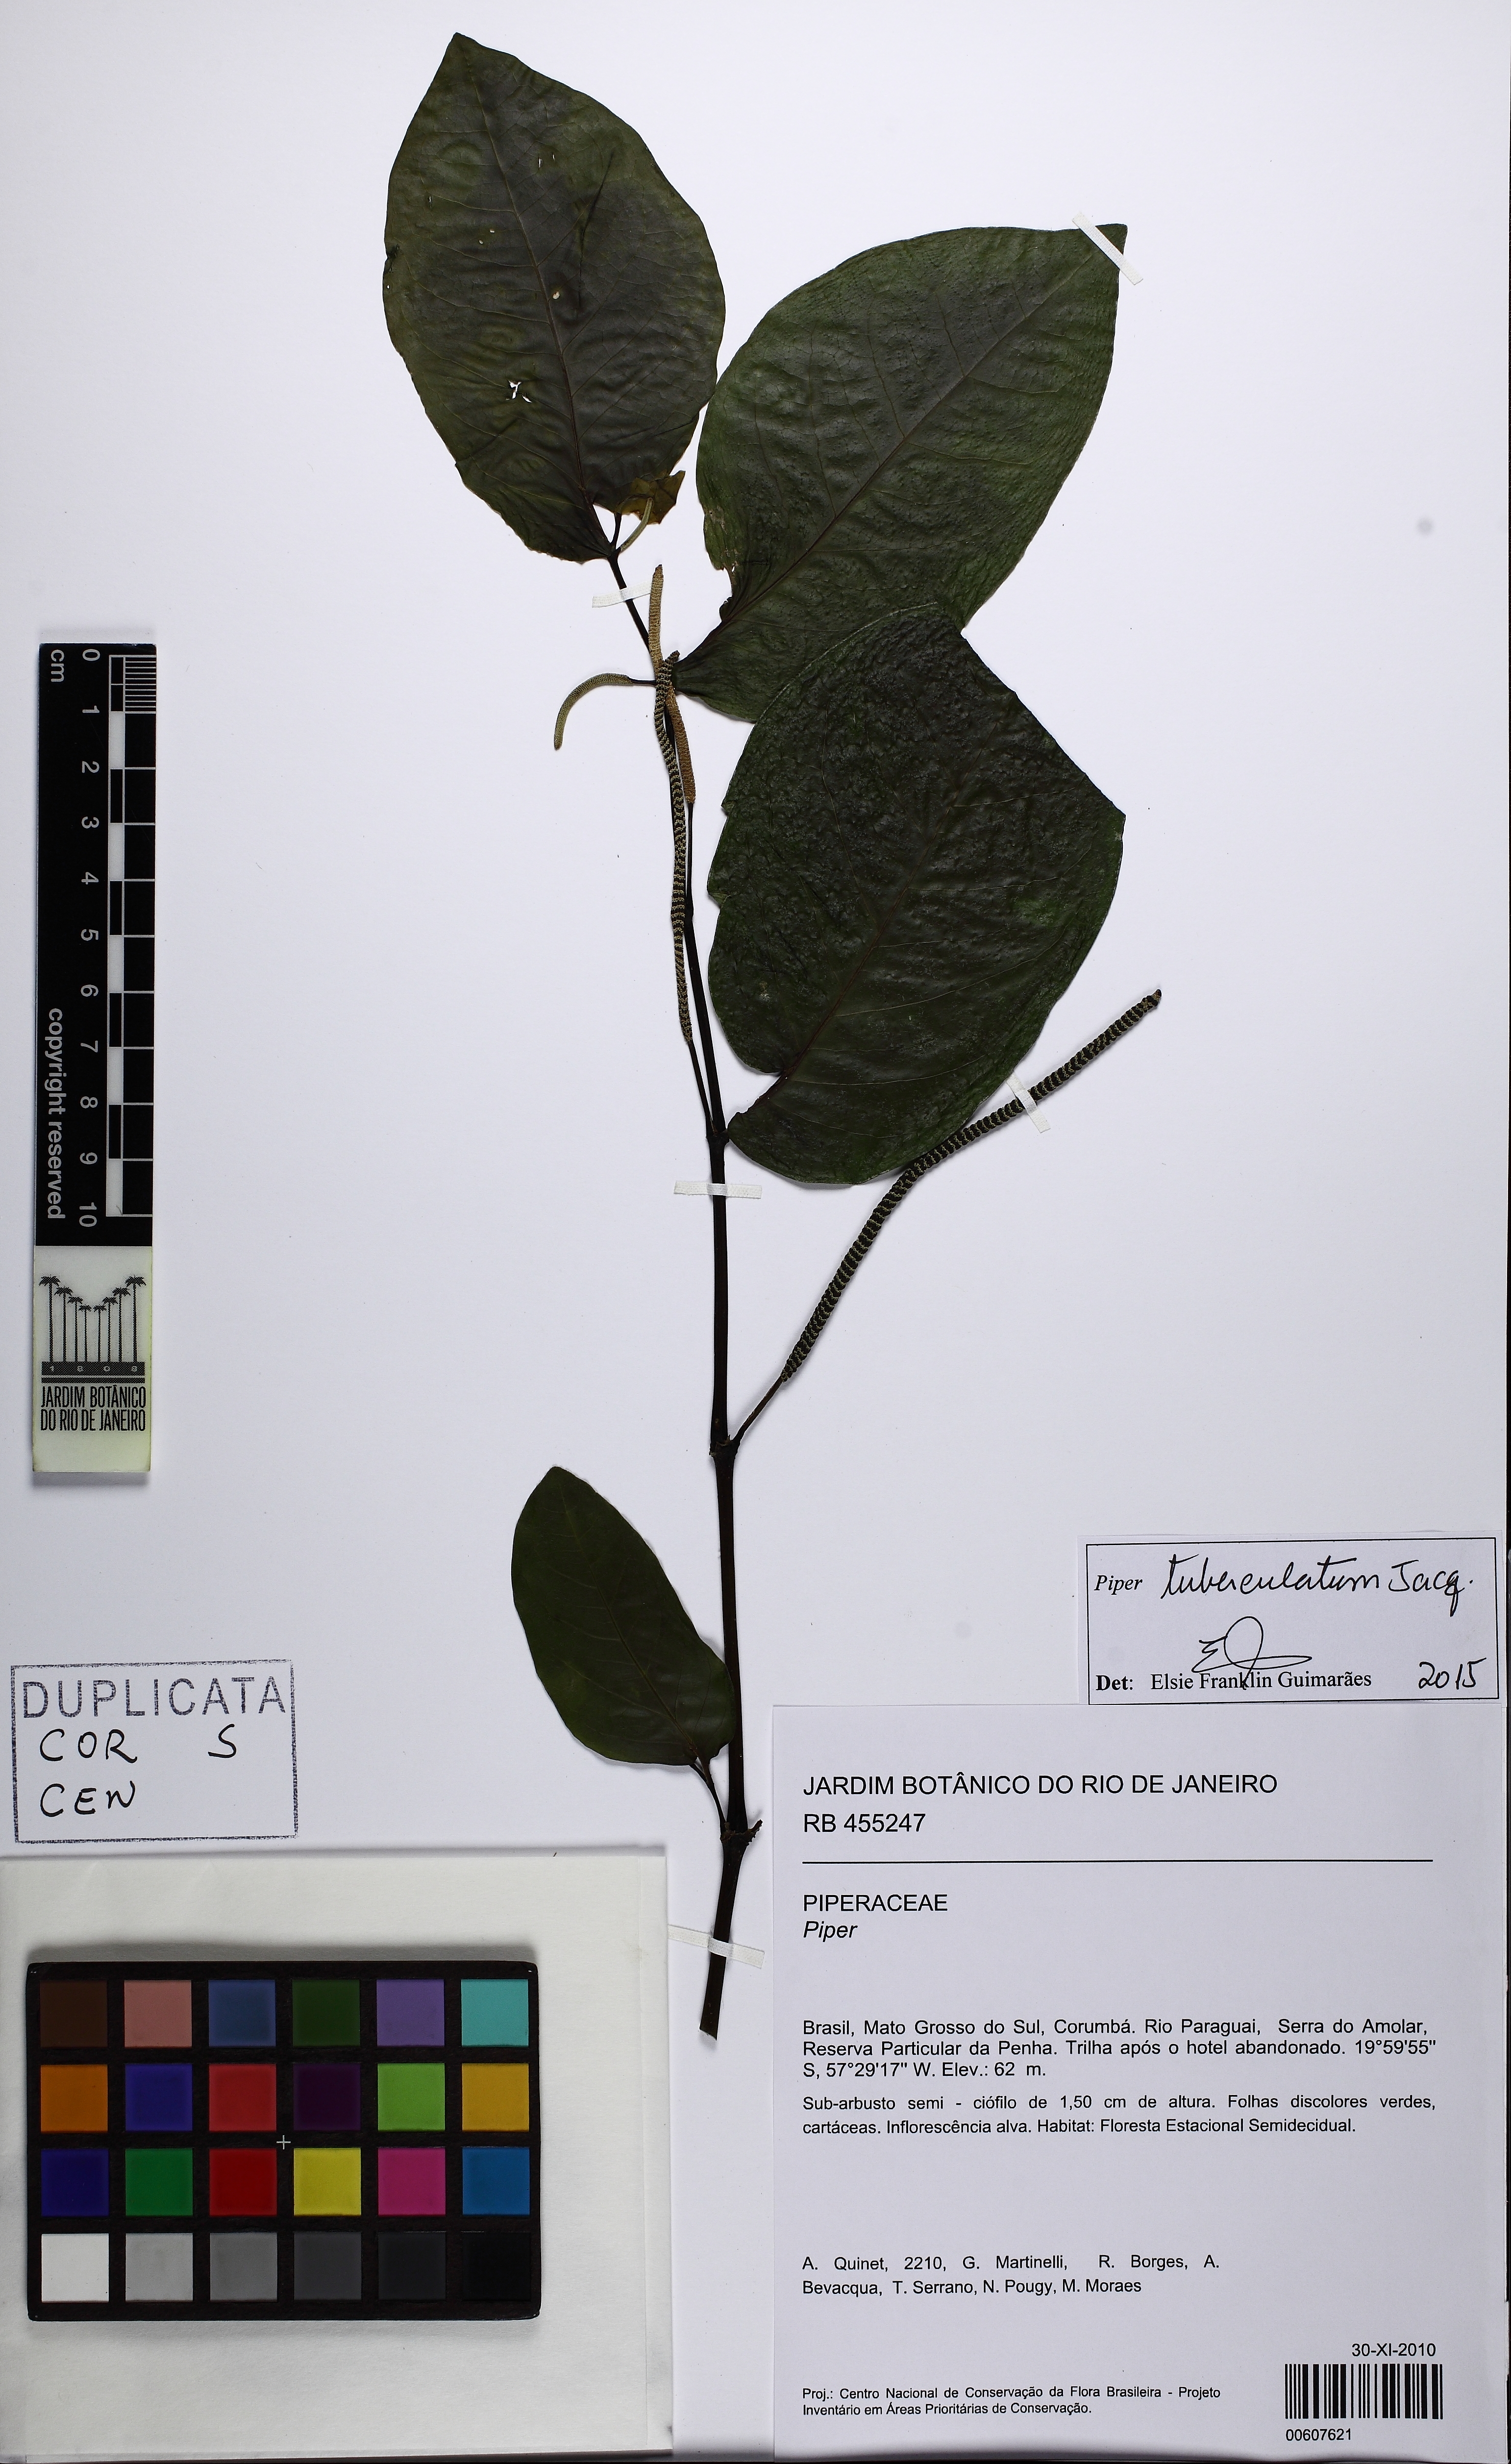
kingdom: Plantae
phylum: Tracheophyta
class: Magnoliopsida
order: Piperales
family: Piperaceae
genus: Piper
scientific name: Piper tuberculatum
